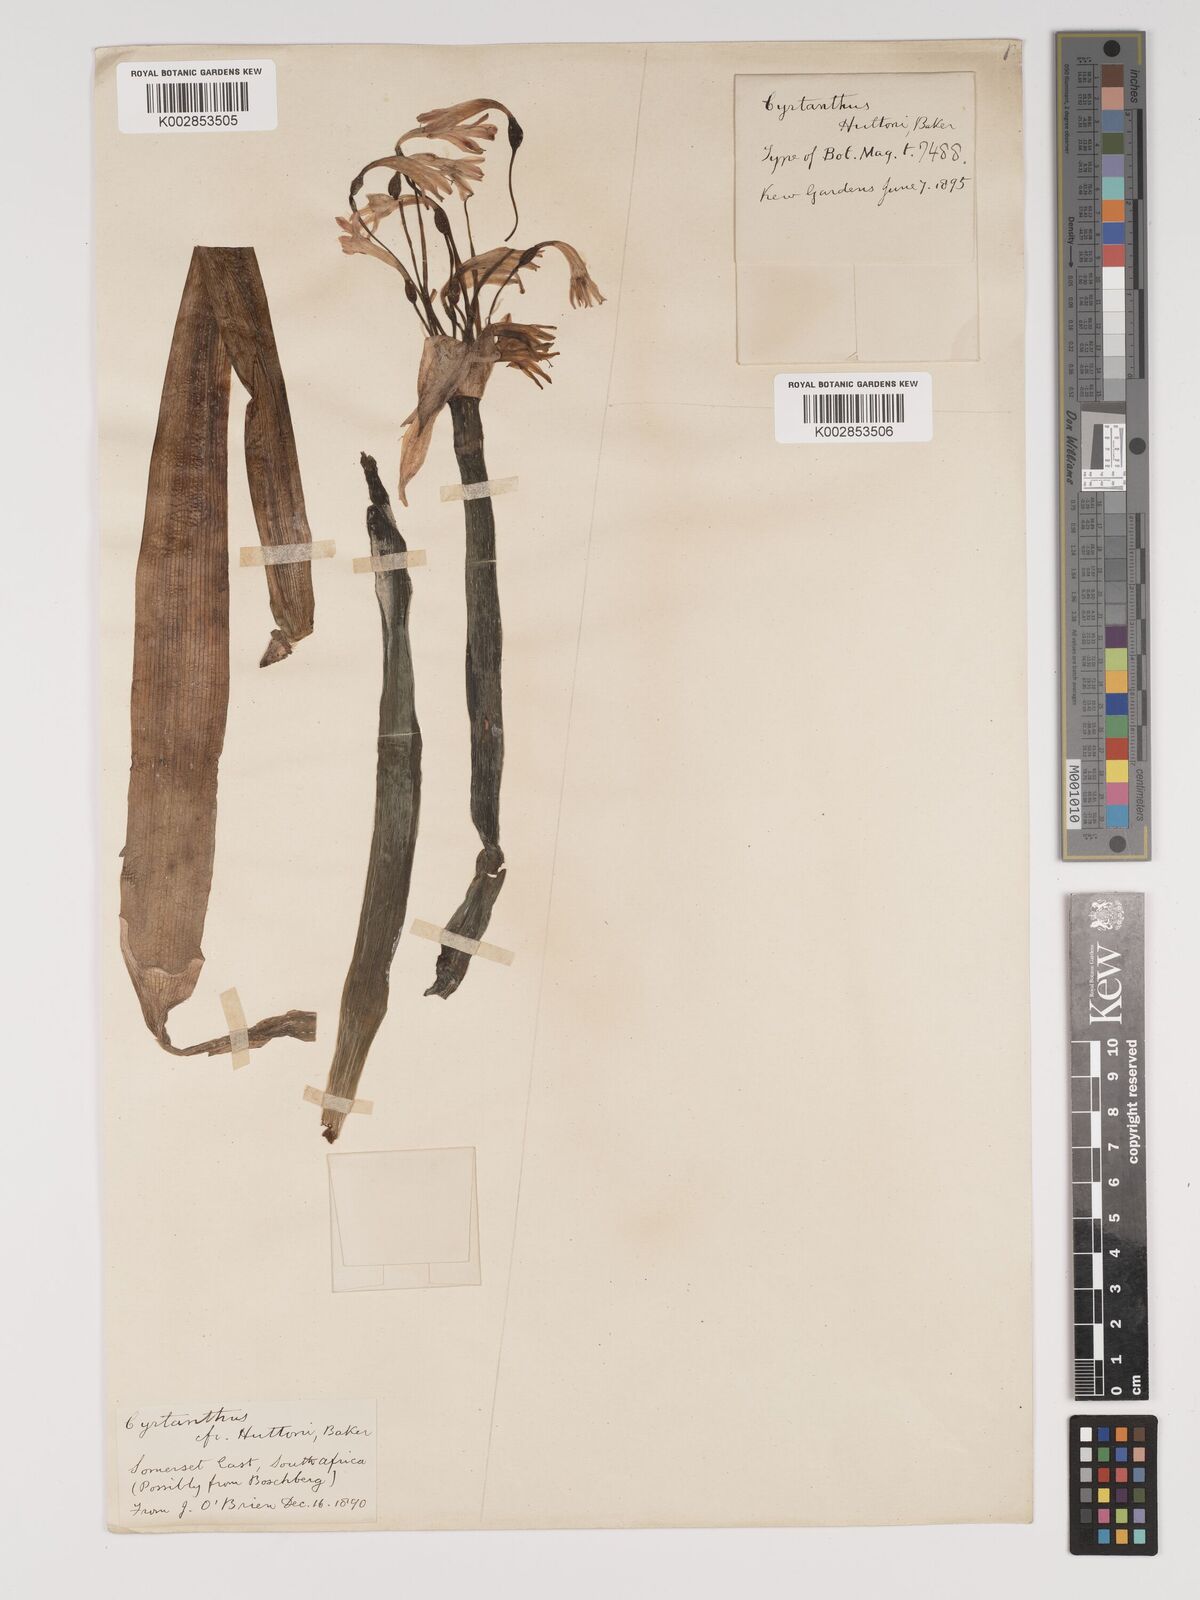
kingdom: Plantae
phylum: Tracheophyta
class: Liliopsida
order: Asparagales
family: Amaryllidaceae
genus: Cyrtanthus
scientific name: Cyrtanthus huttonii
